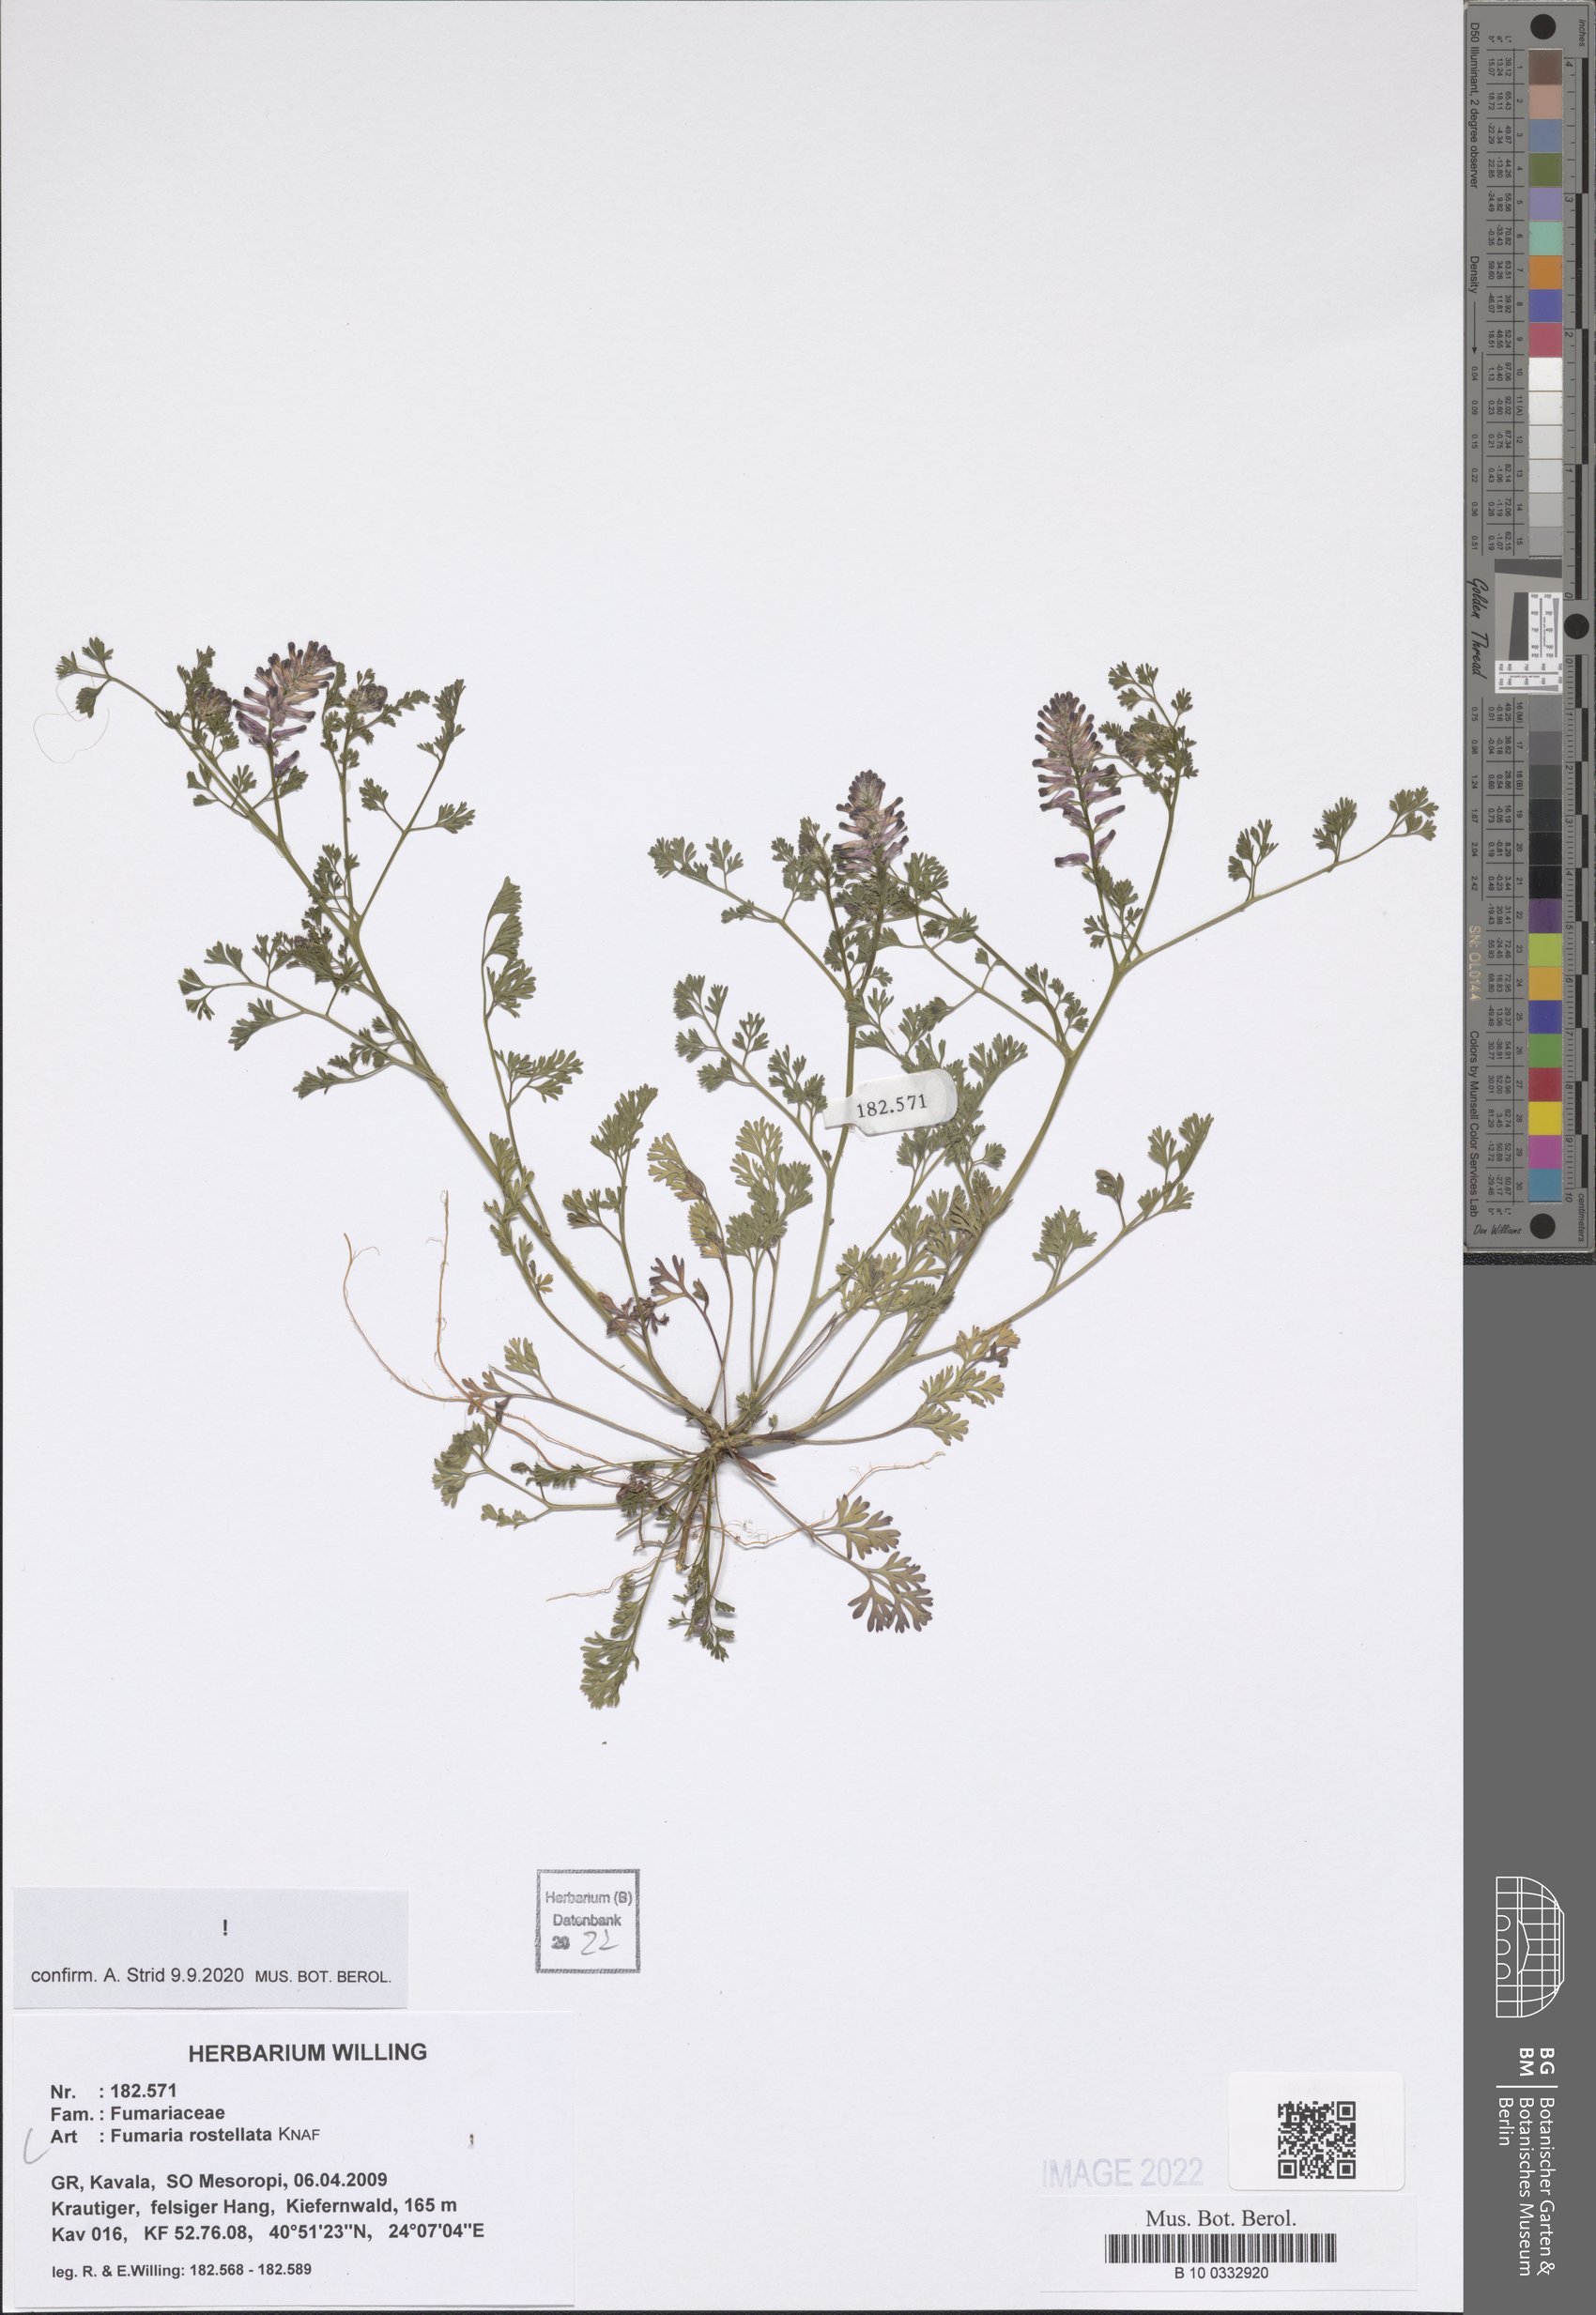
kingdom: Plantae
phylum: Tracheophyta
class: Magnoliopsida
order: Ranunculales
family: Papaveraceae
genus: Fumaria
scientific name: Fumaria rostellata
